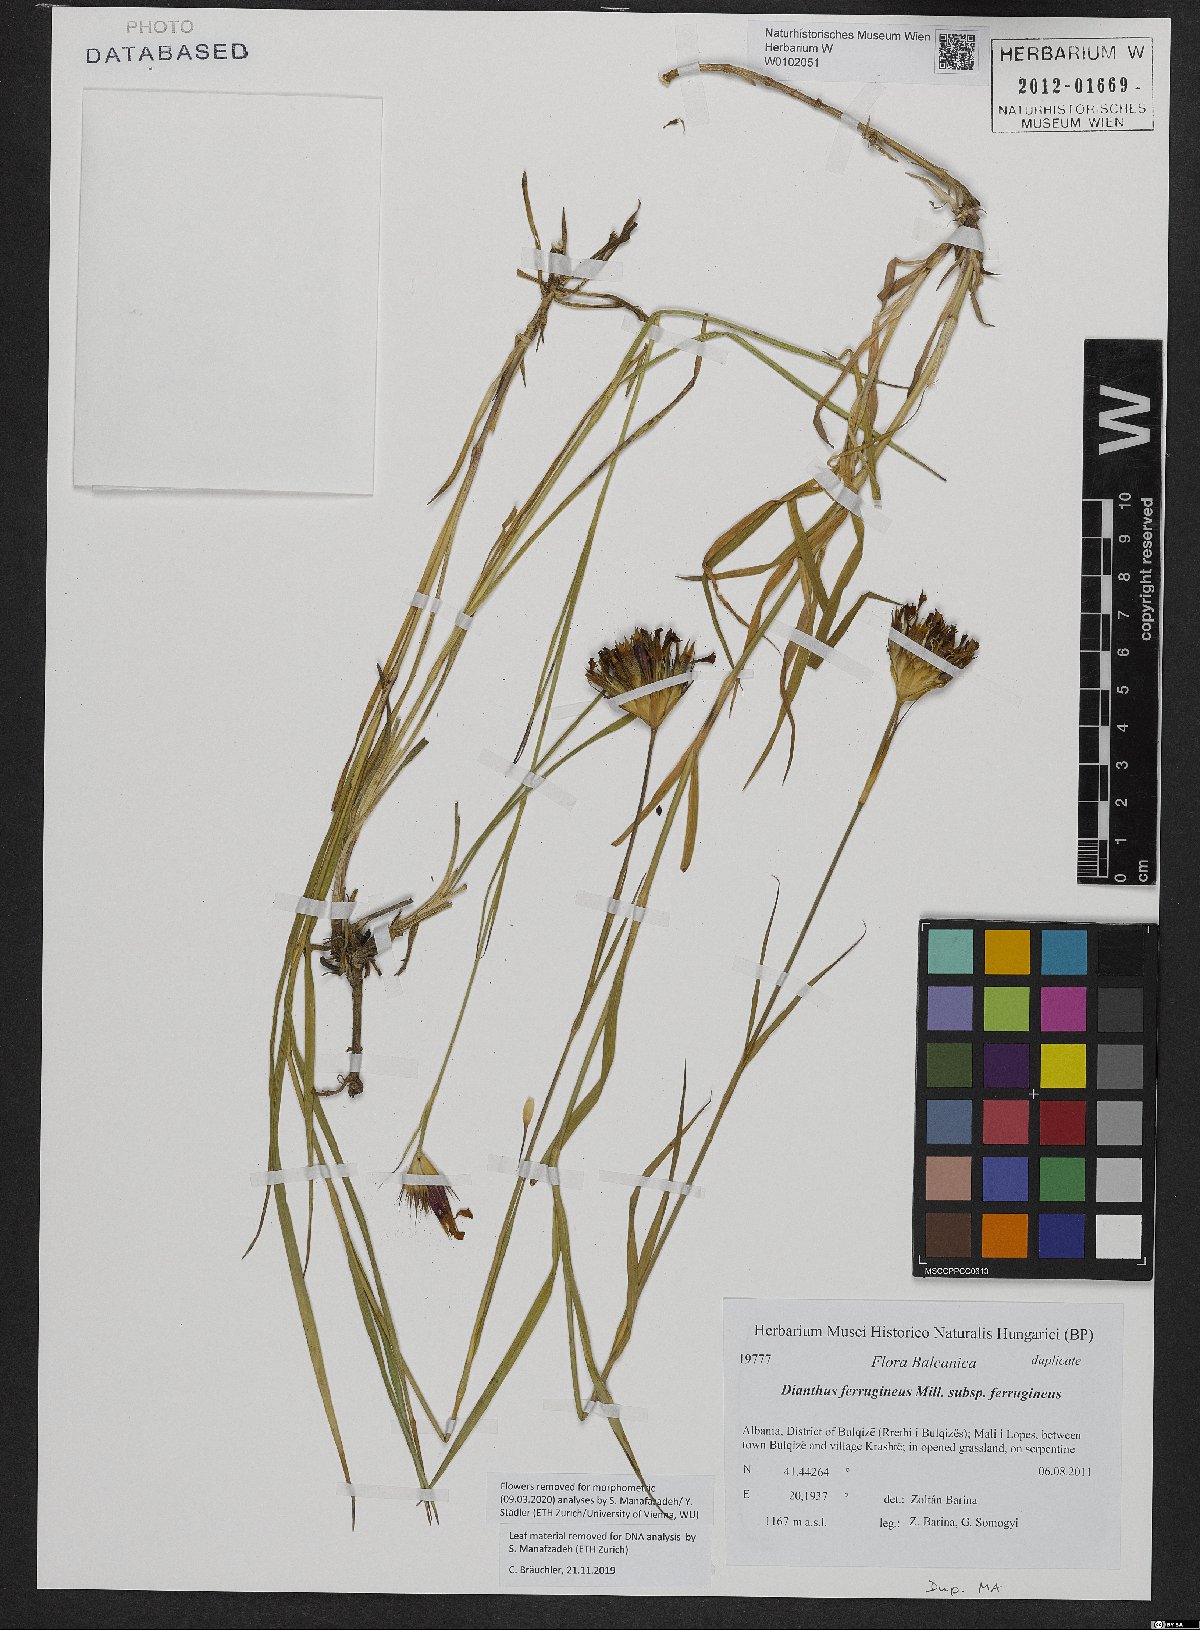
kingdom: Plantae
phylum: Tracheophyta
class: Magnoliopsida
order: Caryophyllales
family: Caryophyllaceae
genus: Dianthus
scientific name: Dianthus
